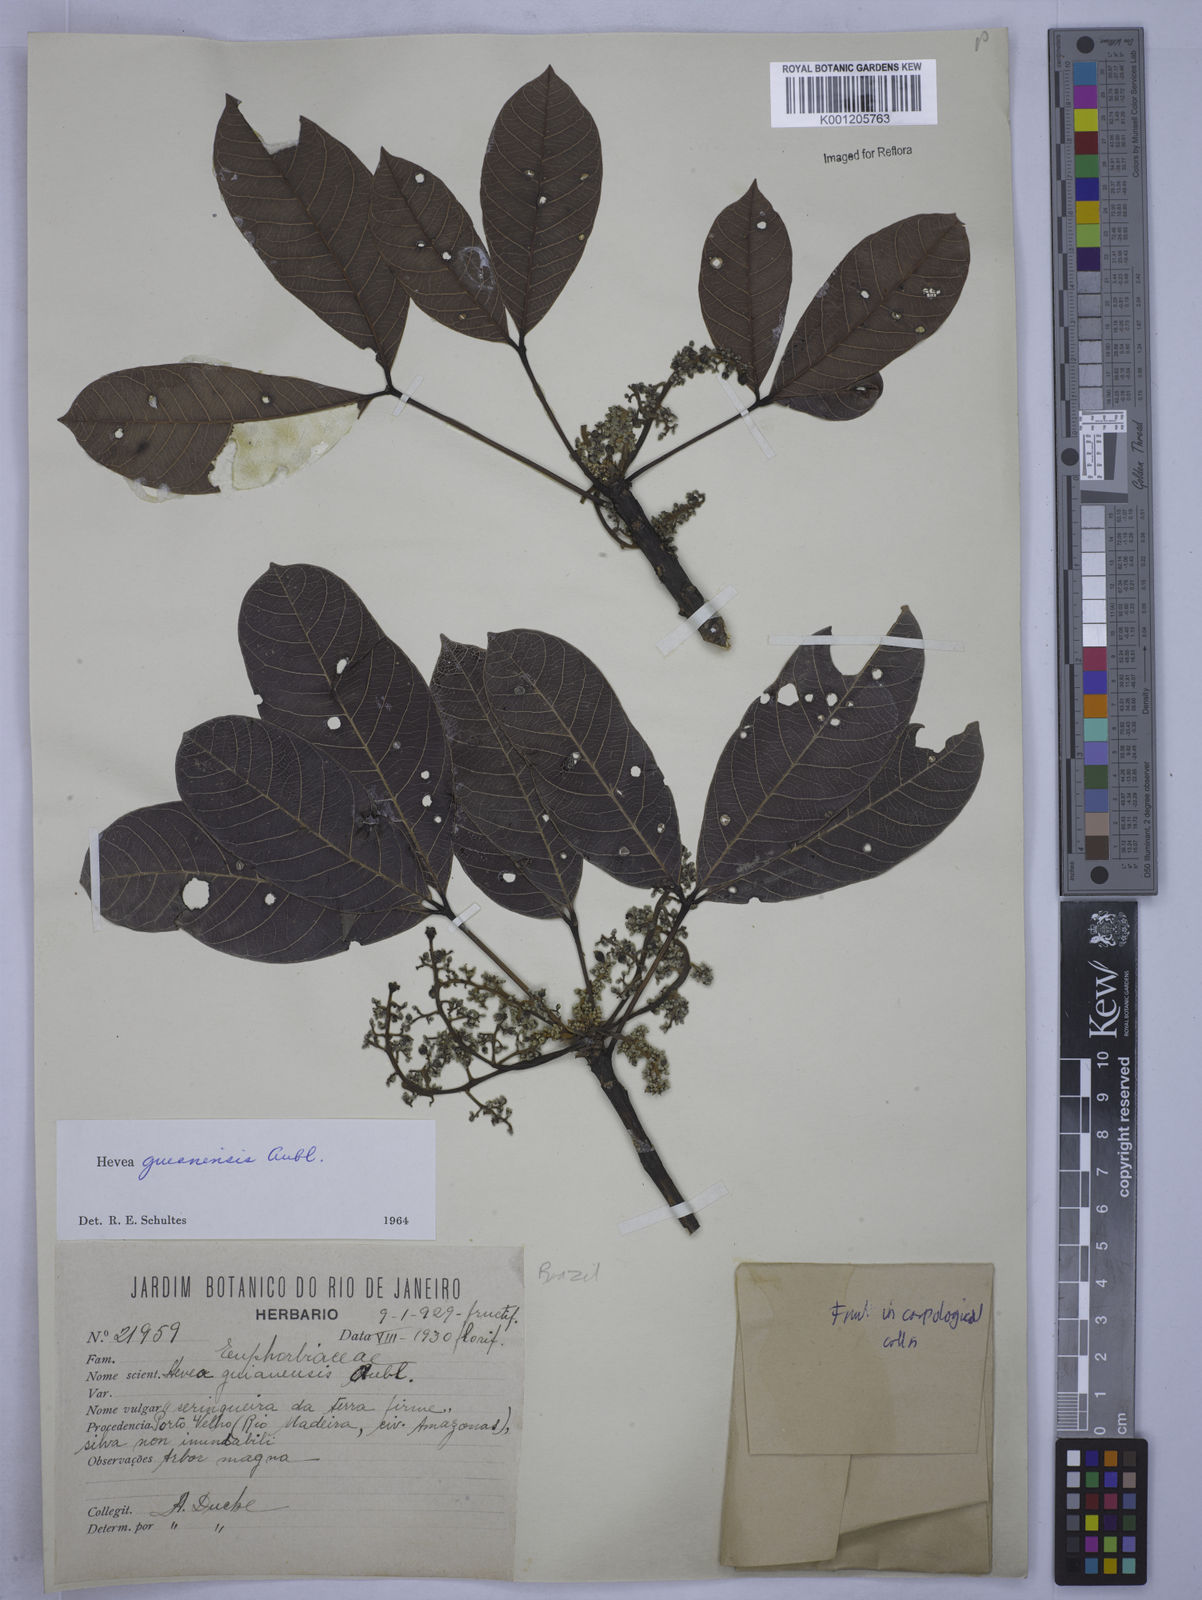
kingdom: Plantae
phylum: Tracheophyta
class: Magnoliopsida
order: Malpighiales
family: Euphorbiaceae
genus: Hevea
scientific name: Hevea guianensis
